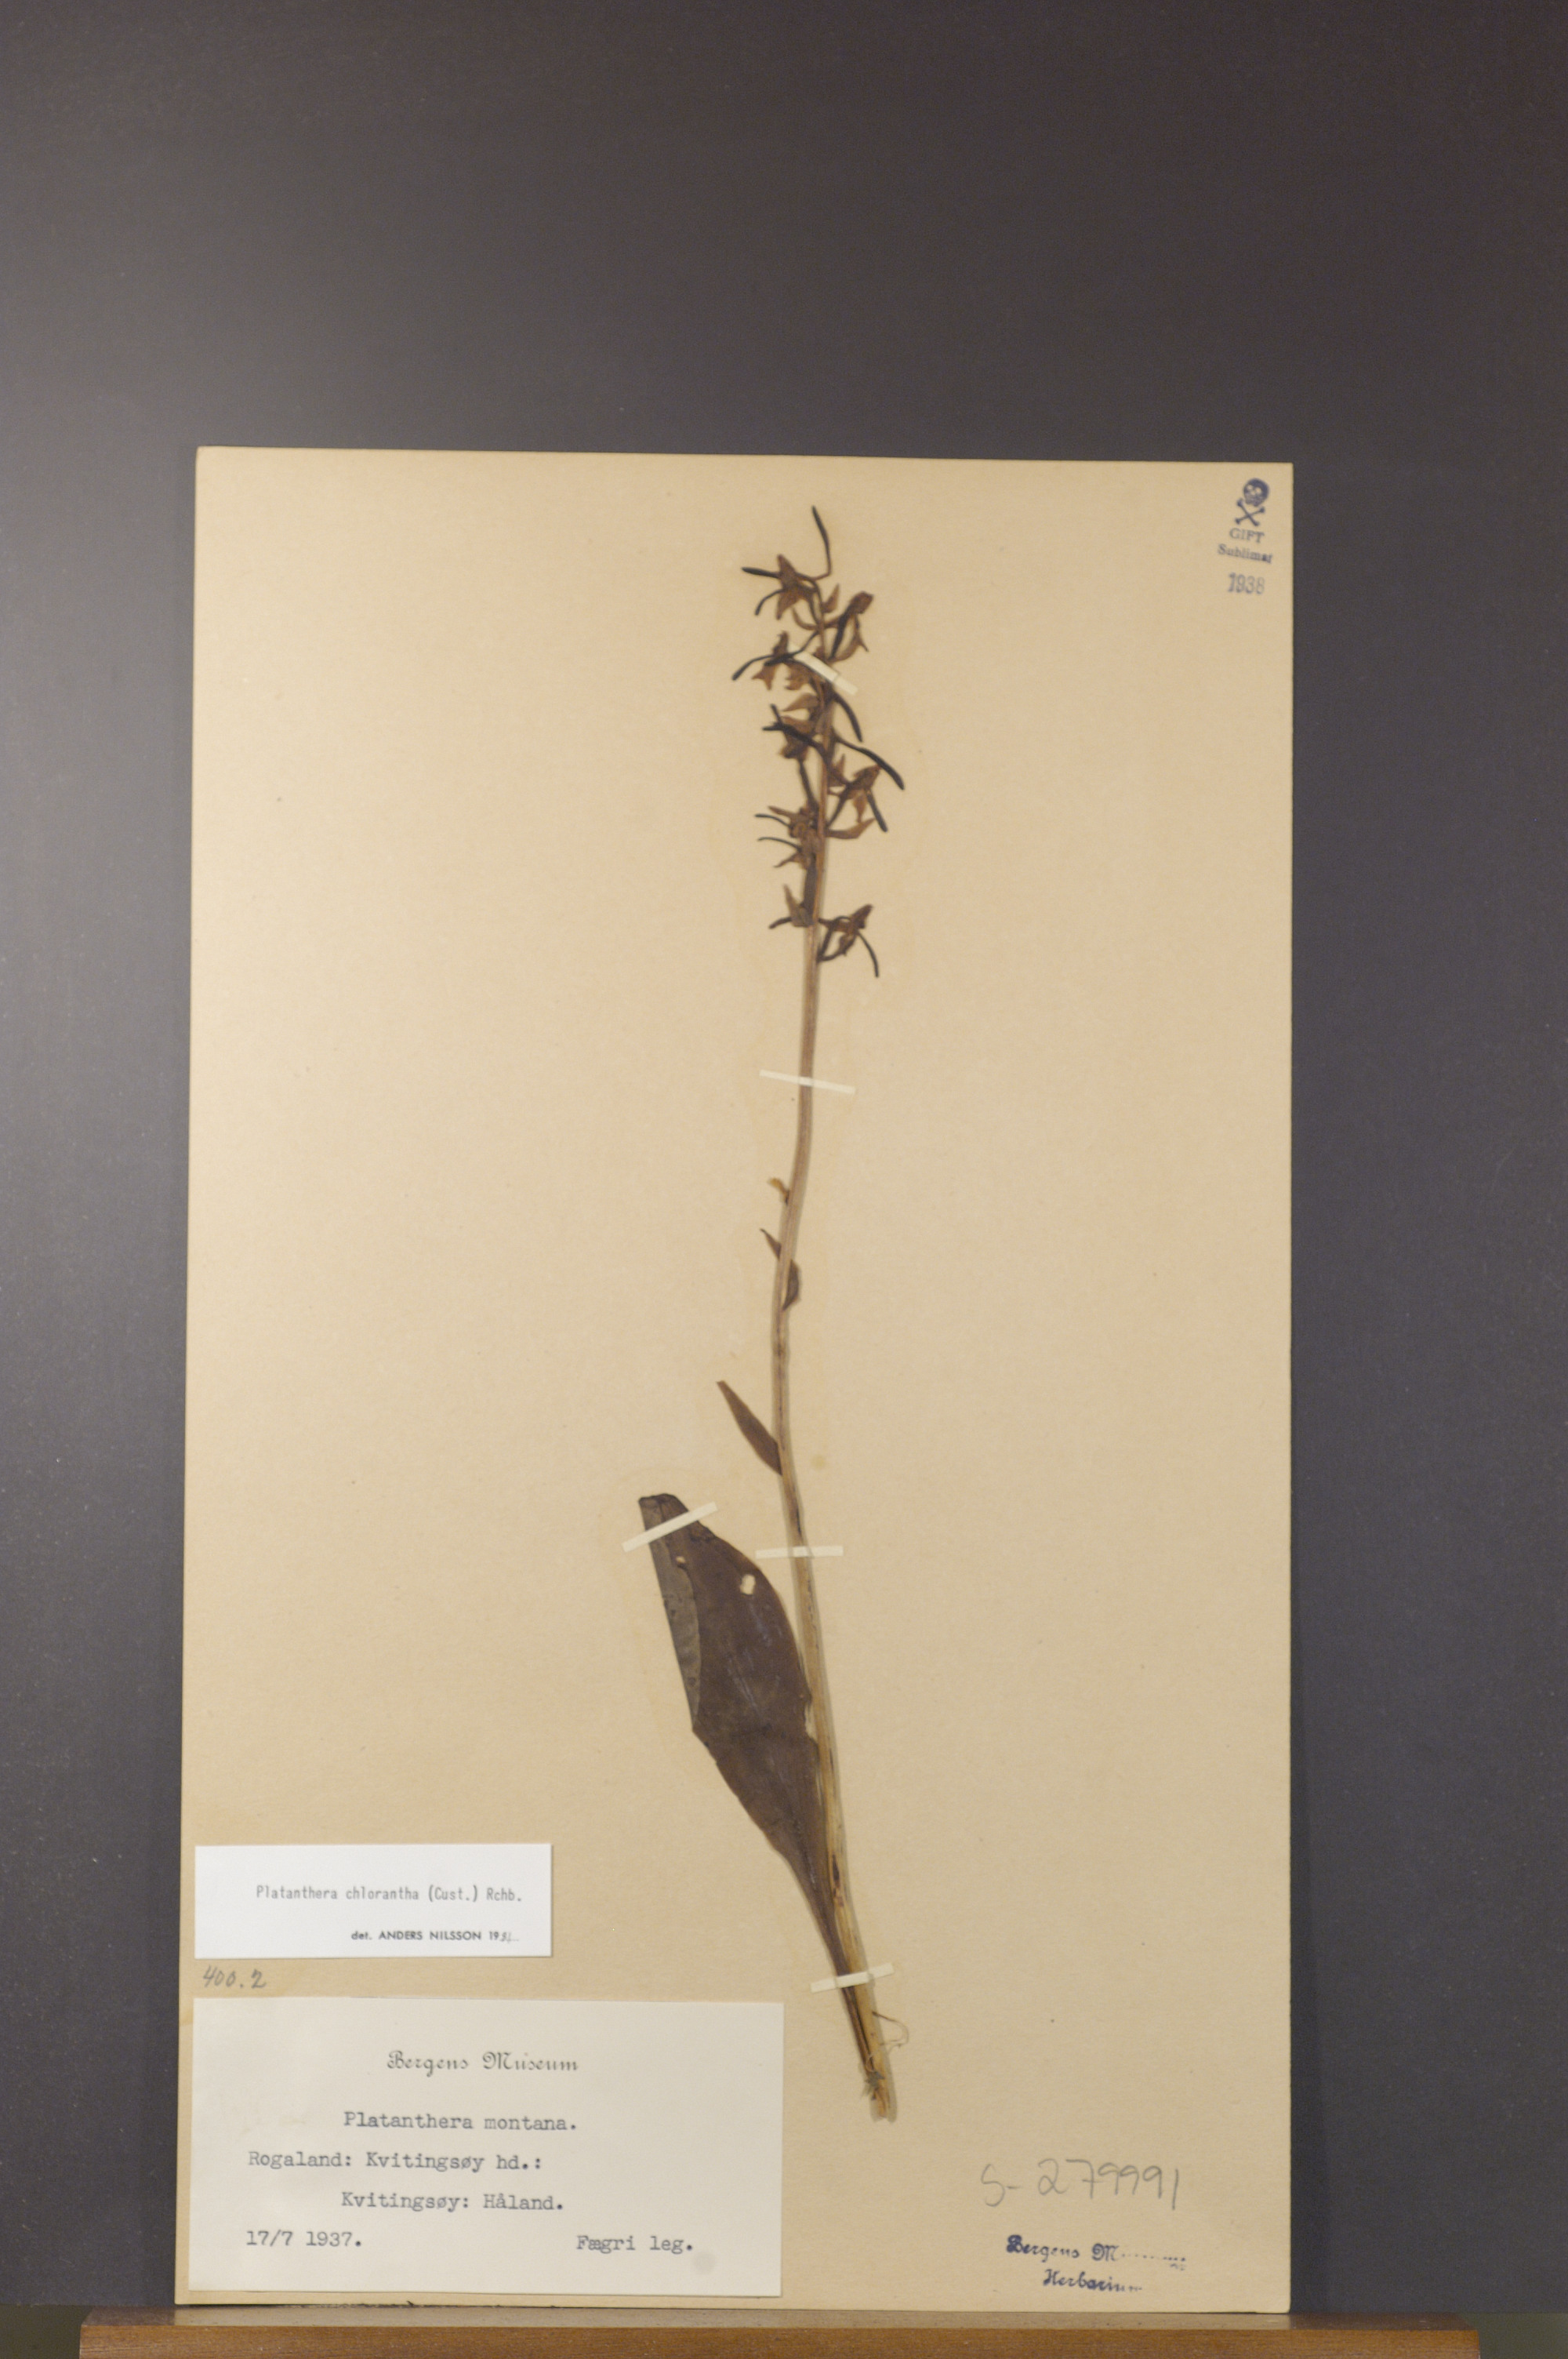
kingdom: Plantae
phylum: Tracheophyta
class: Liliopsida
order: Asparagales
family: Orchidaceae
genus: Platanthera
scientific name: Platanthera chlorantha
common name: Greater butterfly-orchid
